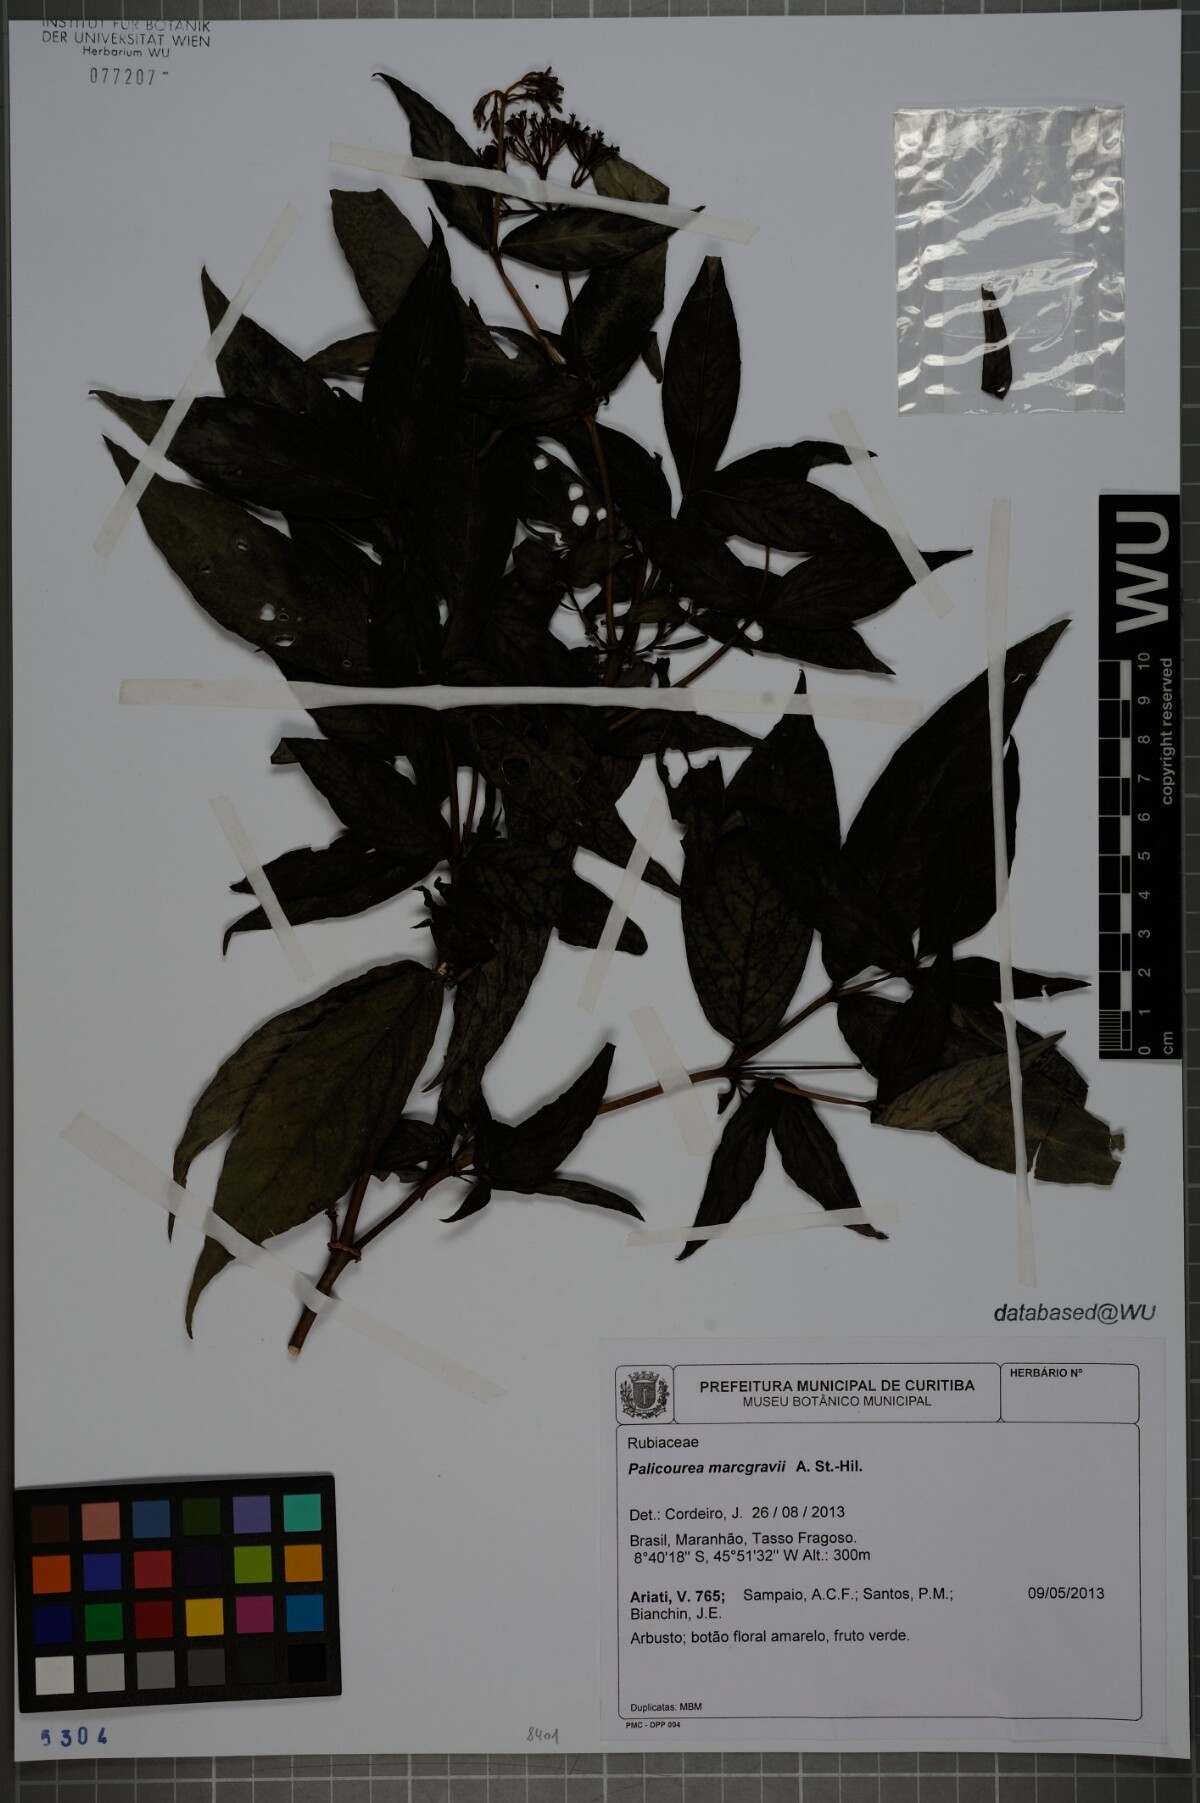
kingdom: Plantae
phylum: Tracheophyta
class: Magnoliopsida
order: Gentianales
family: Rubiaceae
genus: Palicourea
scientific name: Palicourea marcgravii
